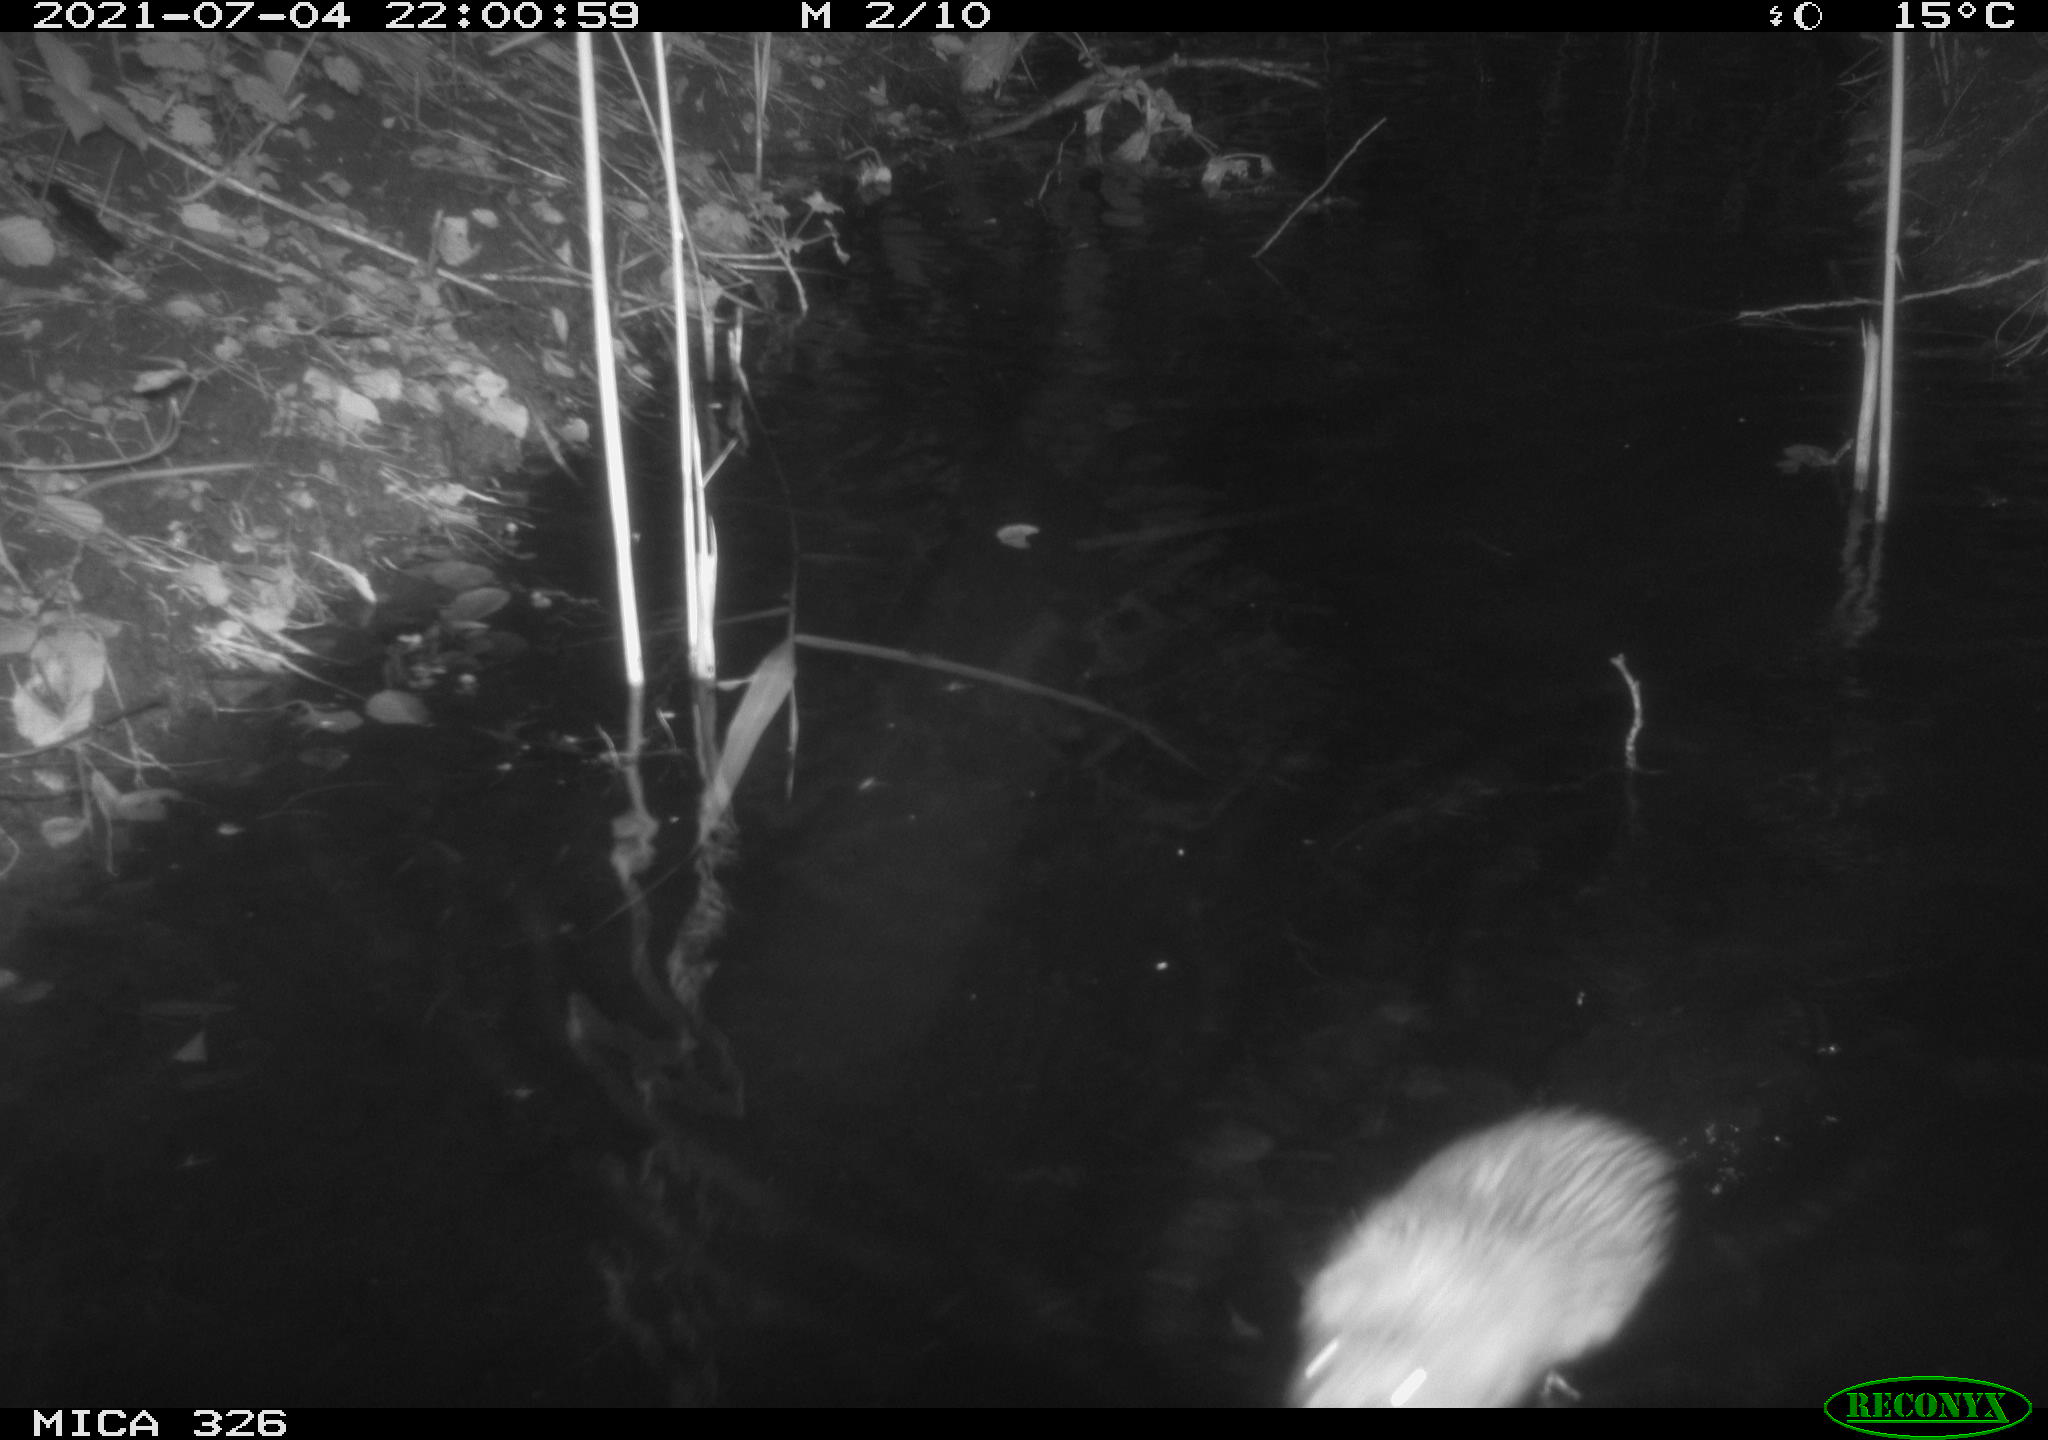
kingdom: Animalia
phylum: Chordata
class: Mammalia
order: Rodentia
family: Cricetidae
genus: Ondatra
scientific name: Ondatra zibethicus
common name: Muskrat
